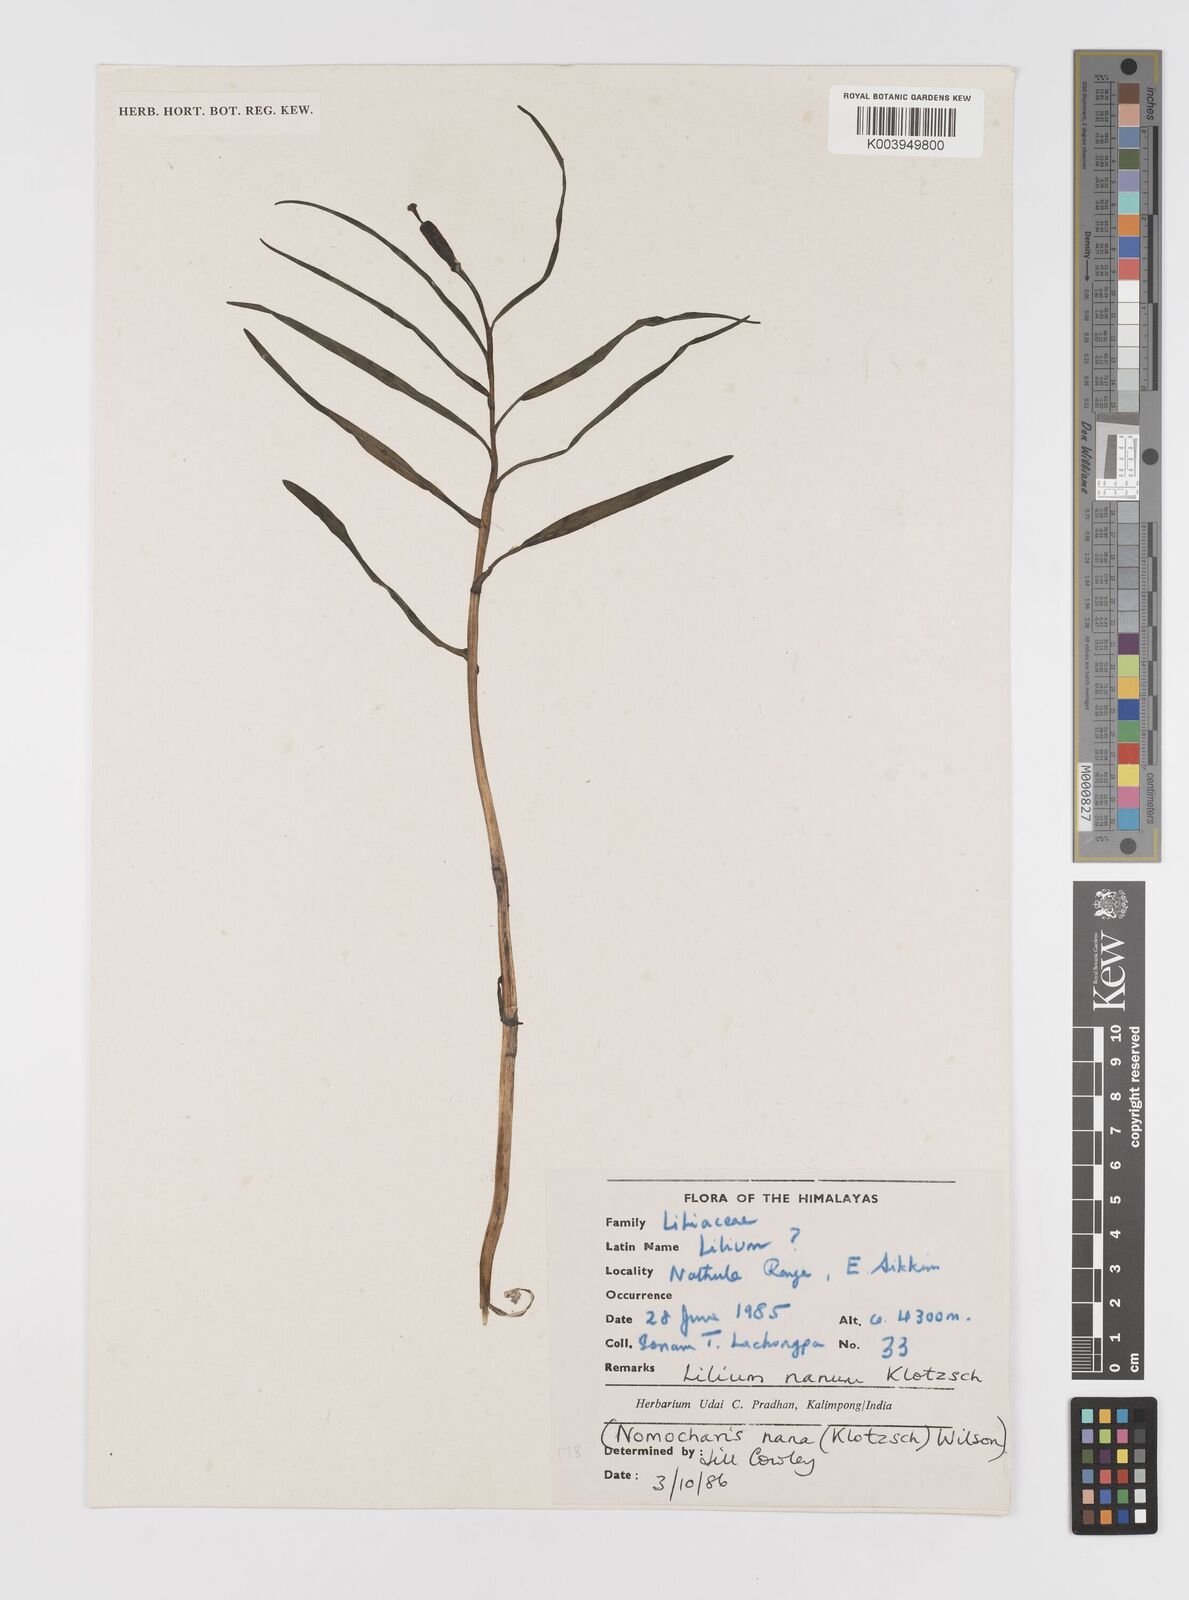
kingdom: Plantae
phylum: Tracheophyta
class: Liliopsida
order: Liliales
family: Liliaceae
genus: Lilium
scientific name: Lilium nanum
